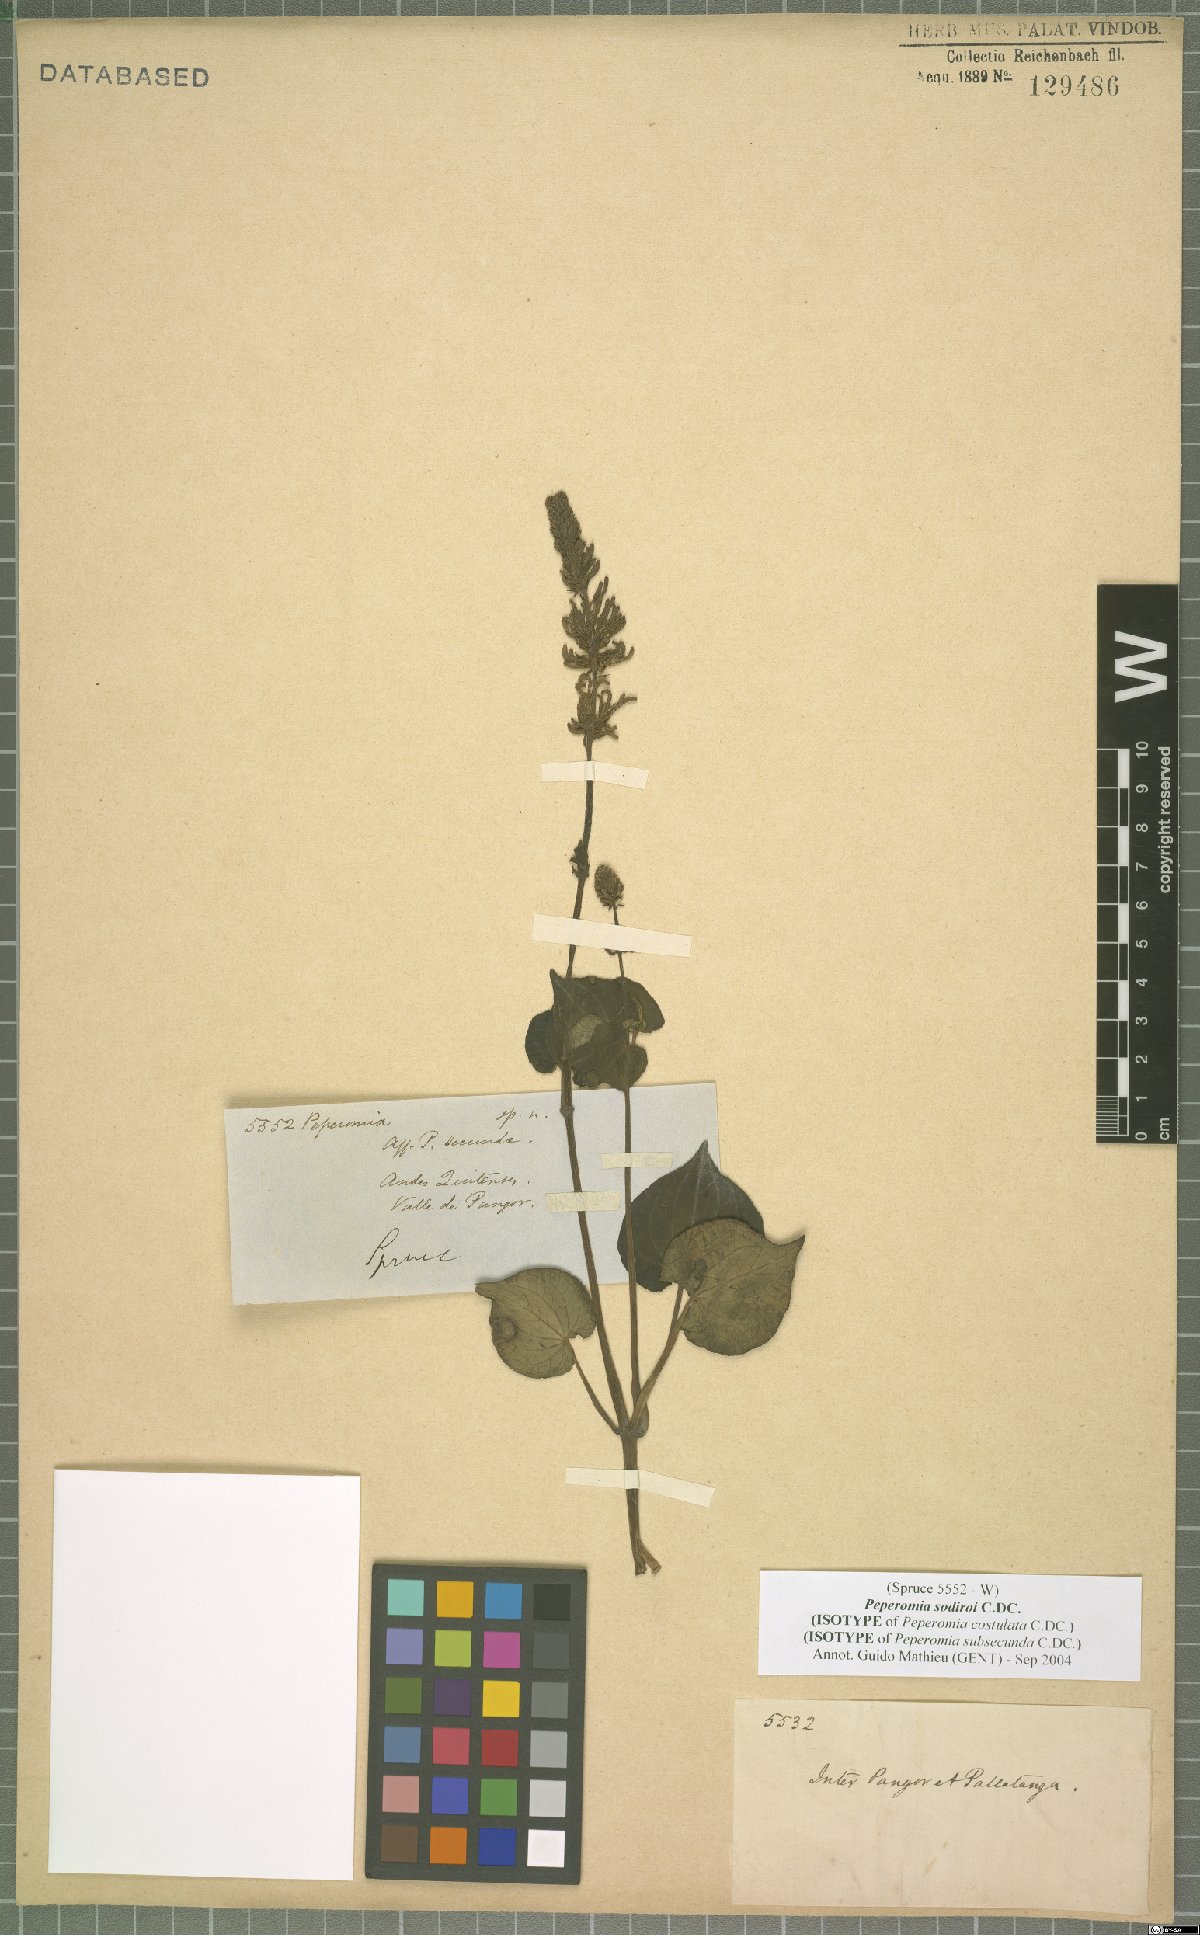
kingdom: Plantae
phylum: Tracheophyta
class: Magnoliopsida
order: Piperales
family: Piperaceae
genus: Peperomia
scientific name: Peperomia sodiroi
